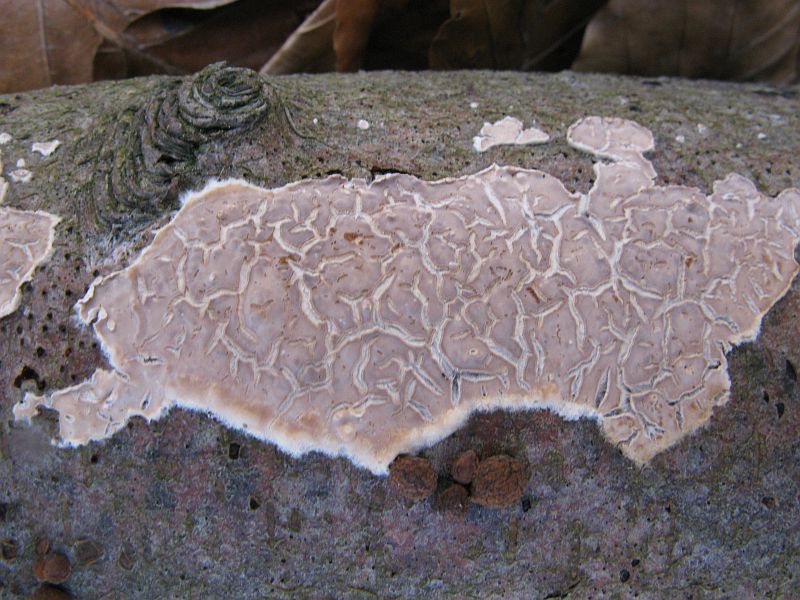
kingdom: Fungi
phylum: Basidiomycota
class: Agaricomycetes
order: Agaricales
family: Physalacriaceae
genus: Cylindrobasidium
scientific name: Cylindrobasidium evolvens
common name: sprækkehinde
